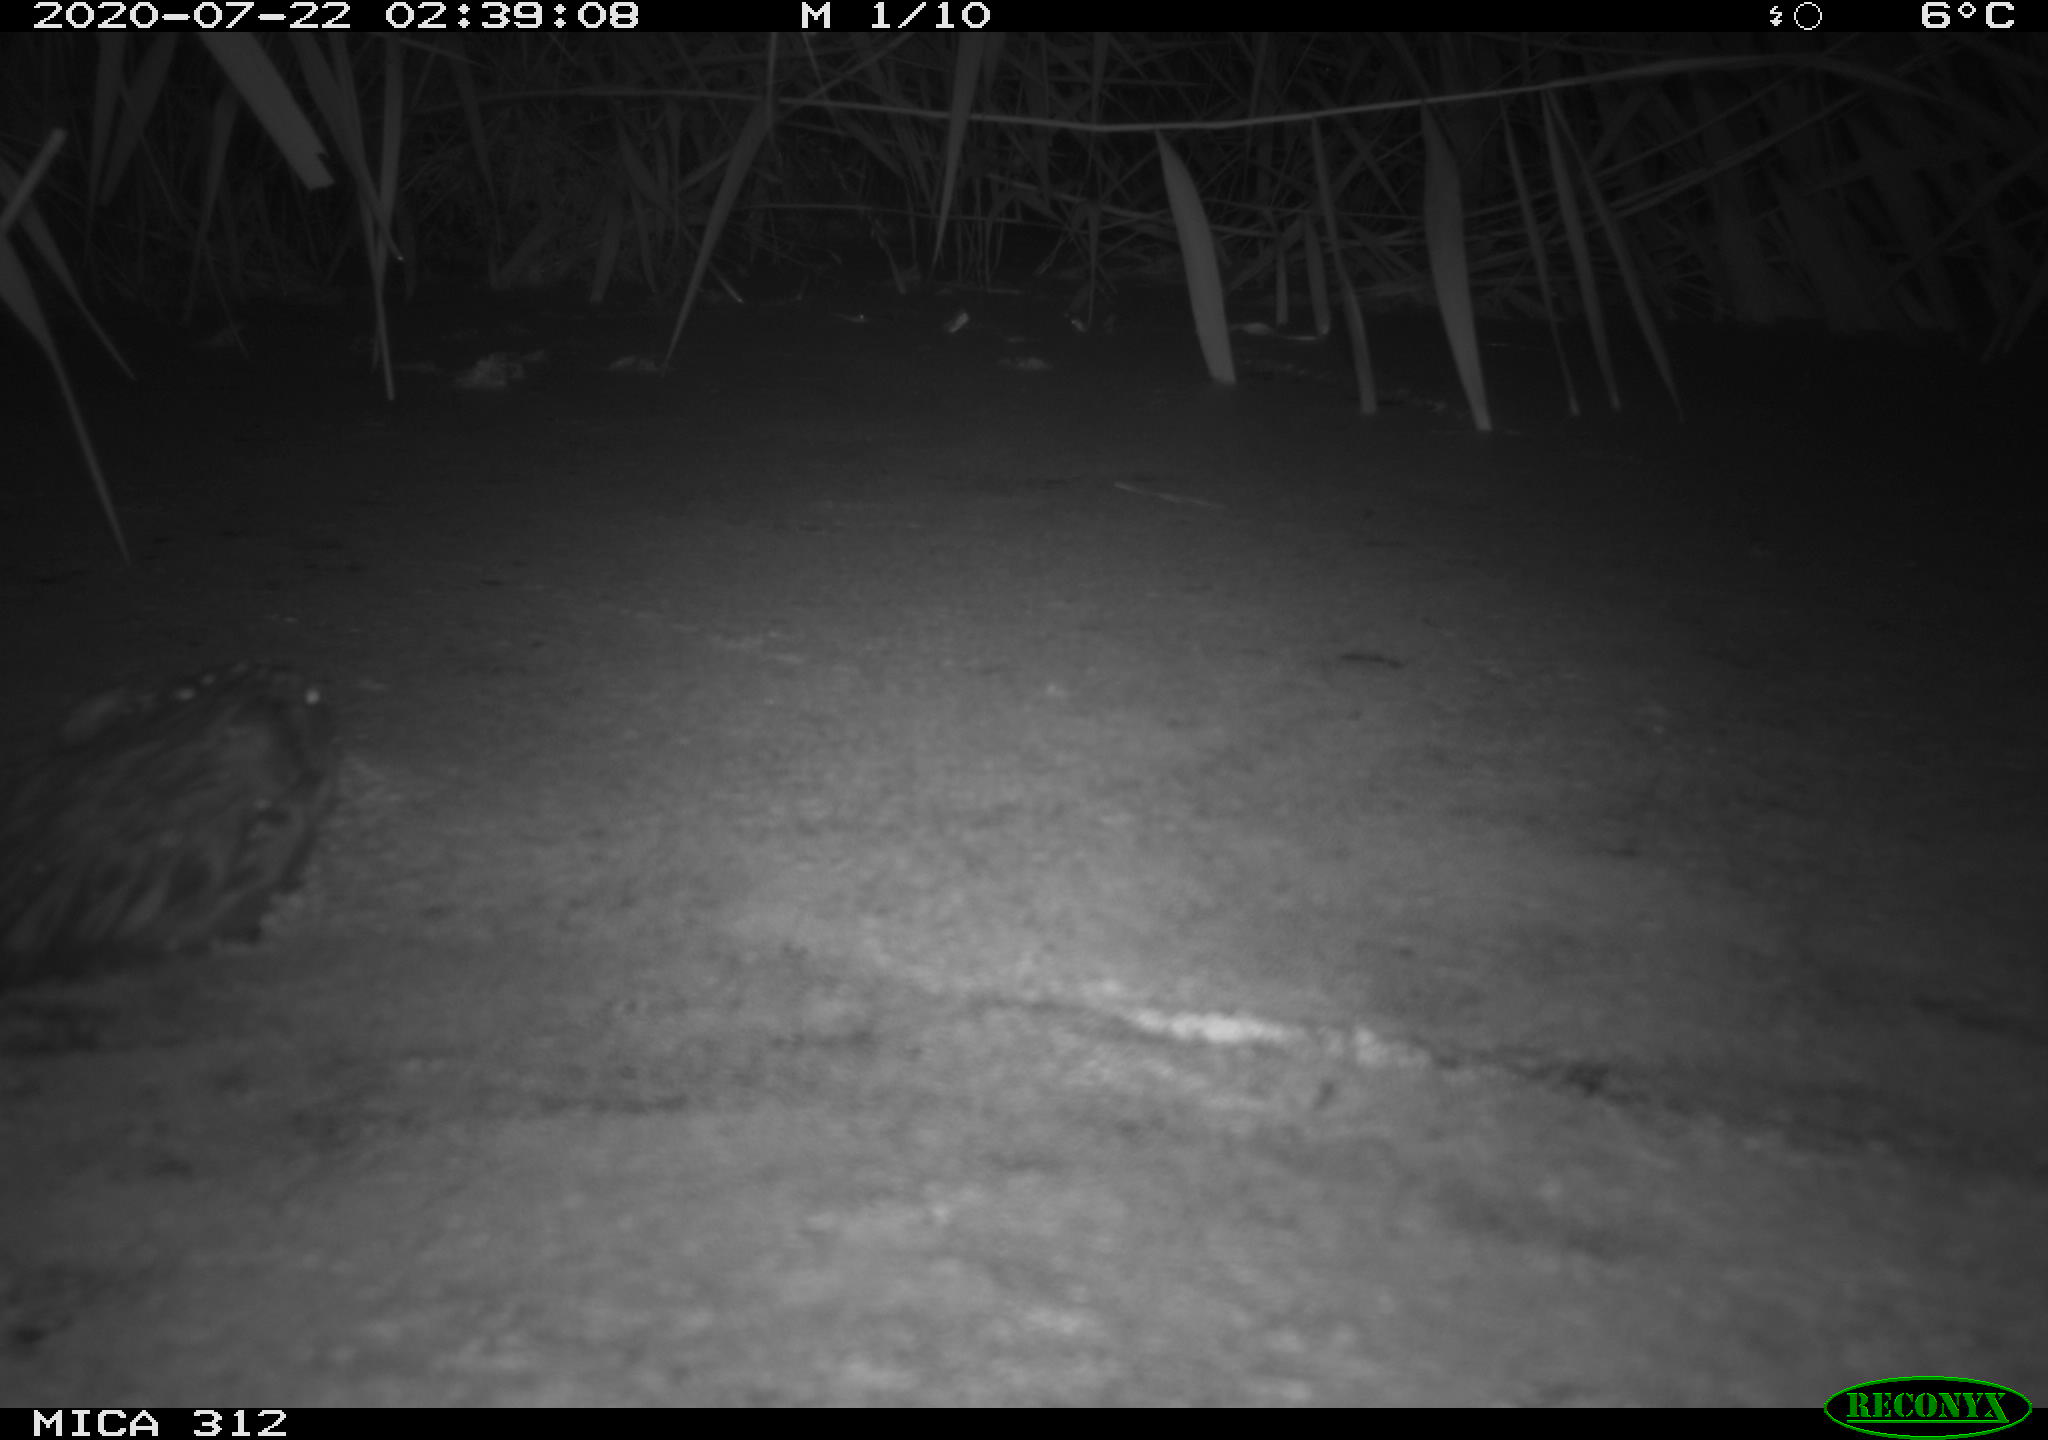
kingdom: Animalia
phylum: Chordata
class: Mammalia
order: Rodentia
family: Cricetidae
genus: Ondatra
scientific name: Ondatra zibethicus
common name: Muskrat
